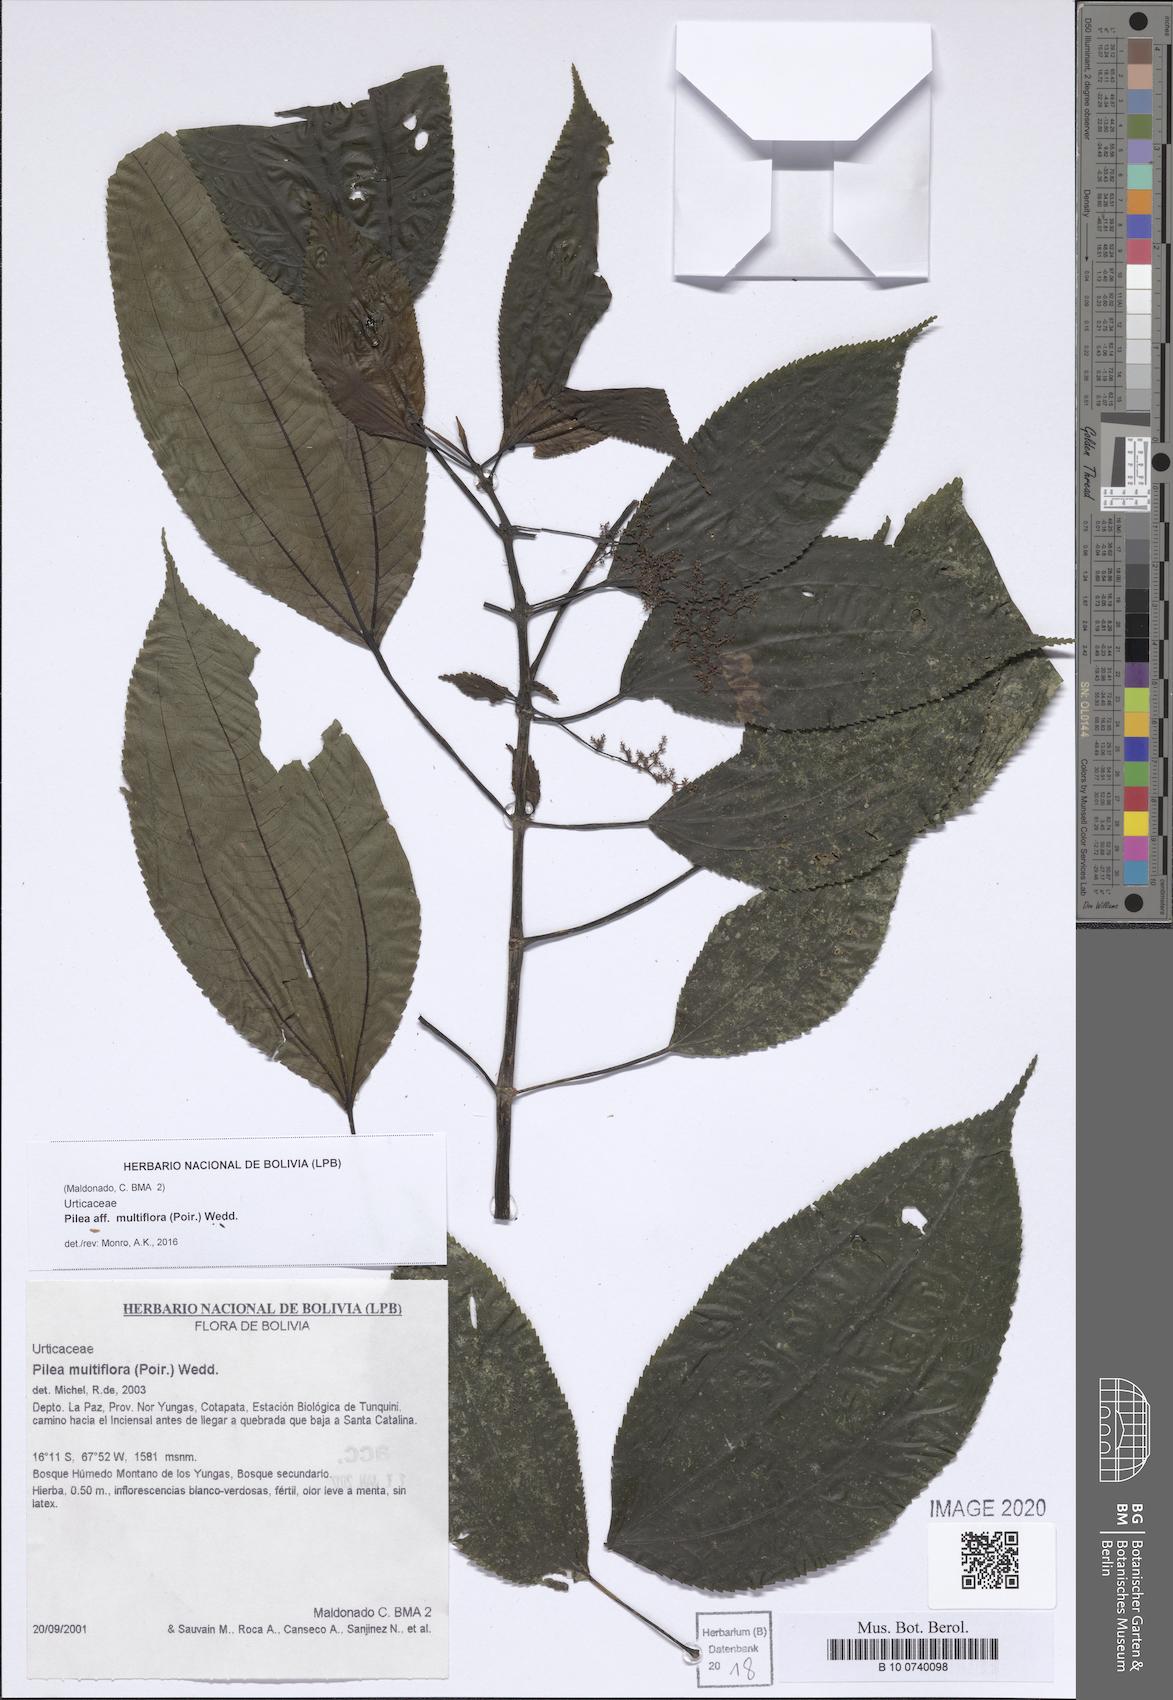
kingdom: Plantae
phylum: Tracheophyta
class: Magnoliopsida
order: Rosales
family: Urticaceae
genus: Pilea
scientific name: Pilea multiflora
